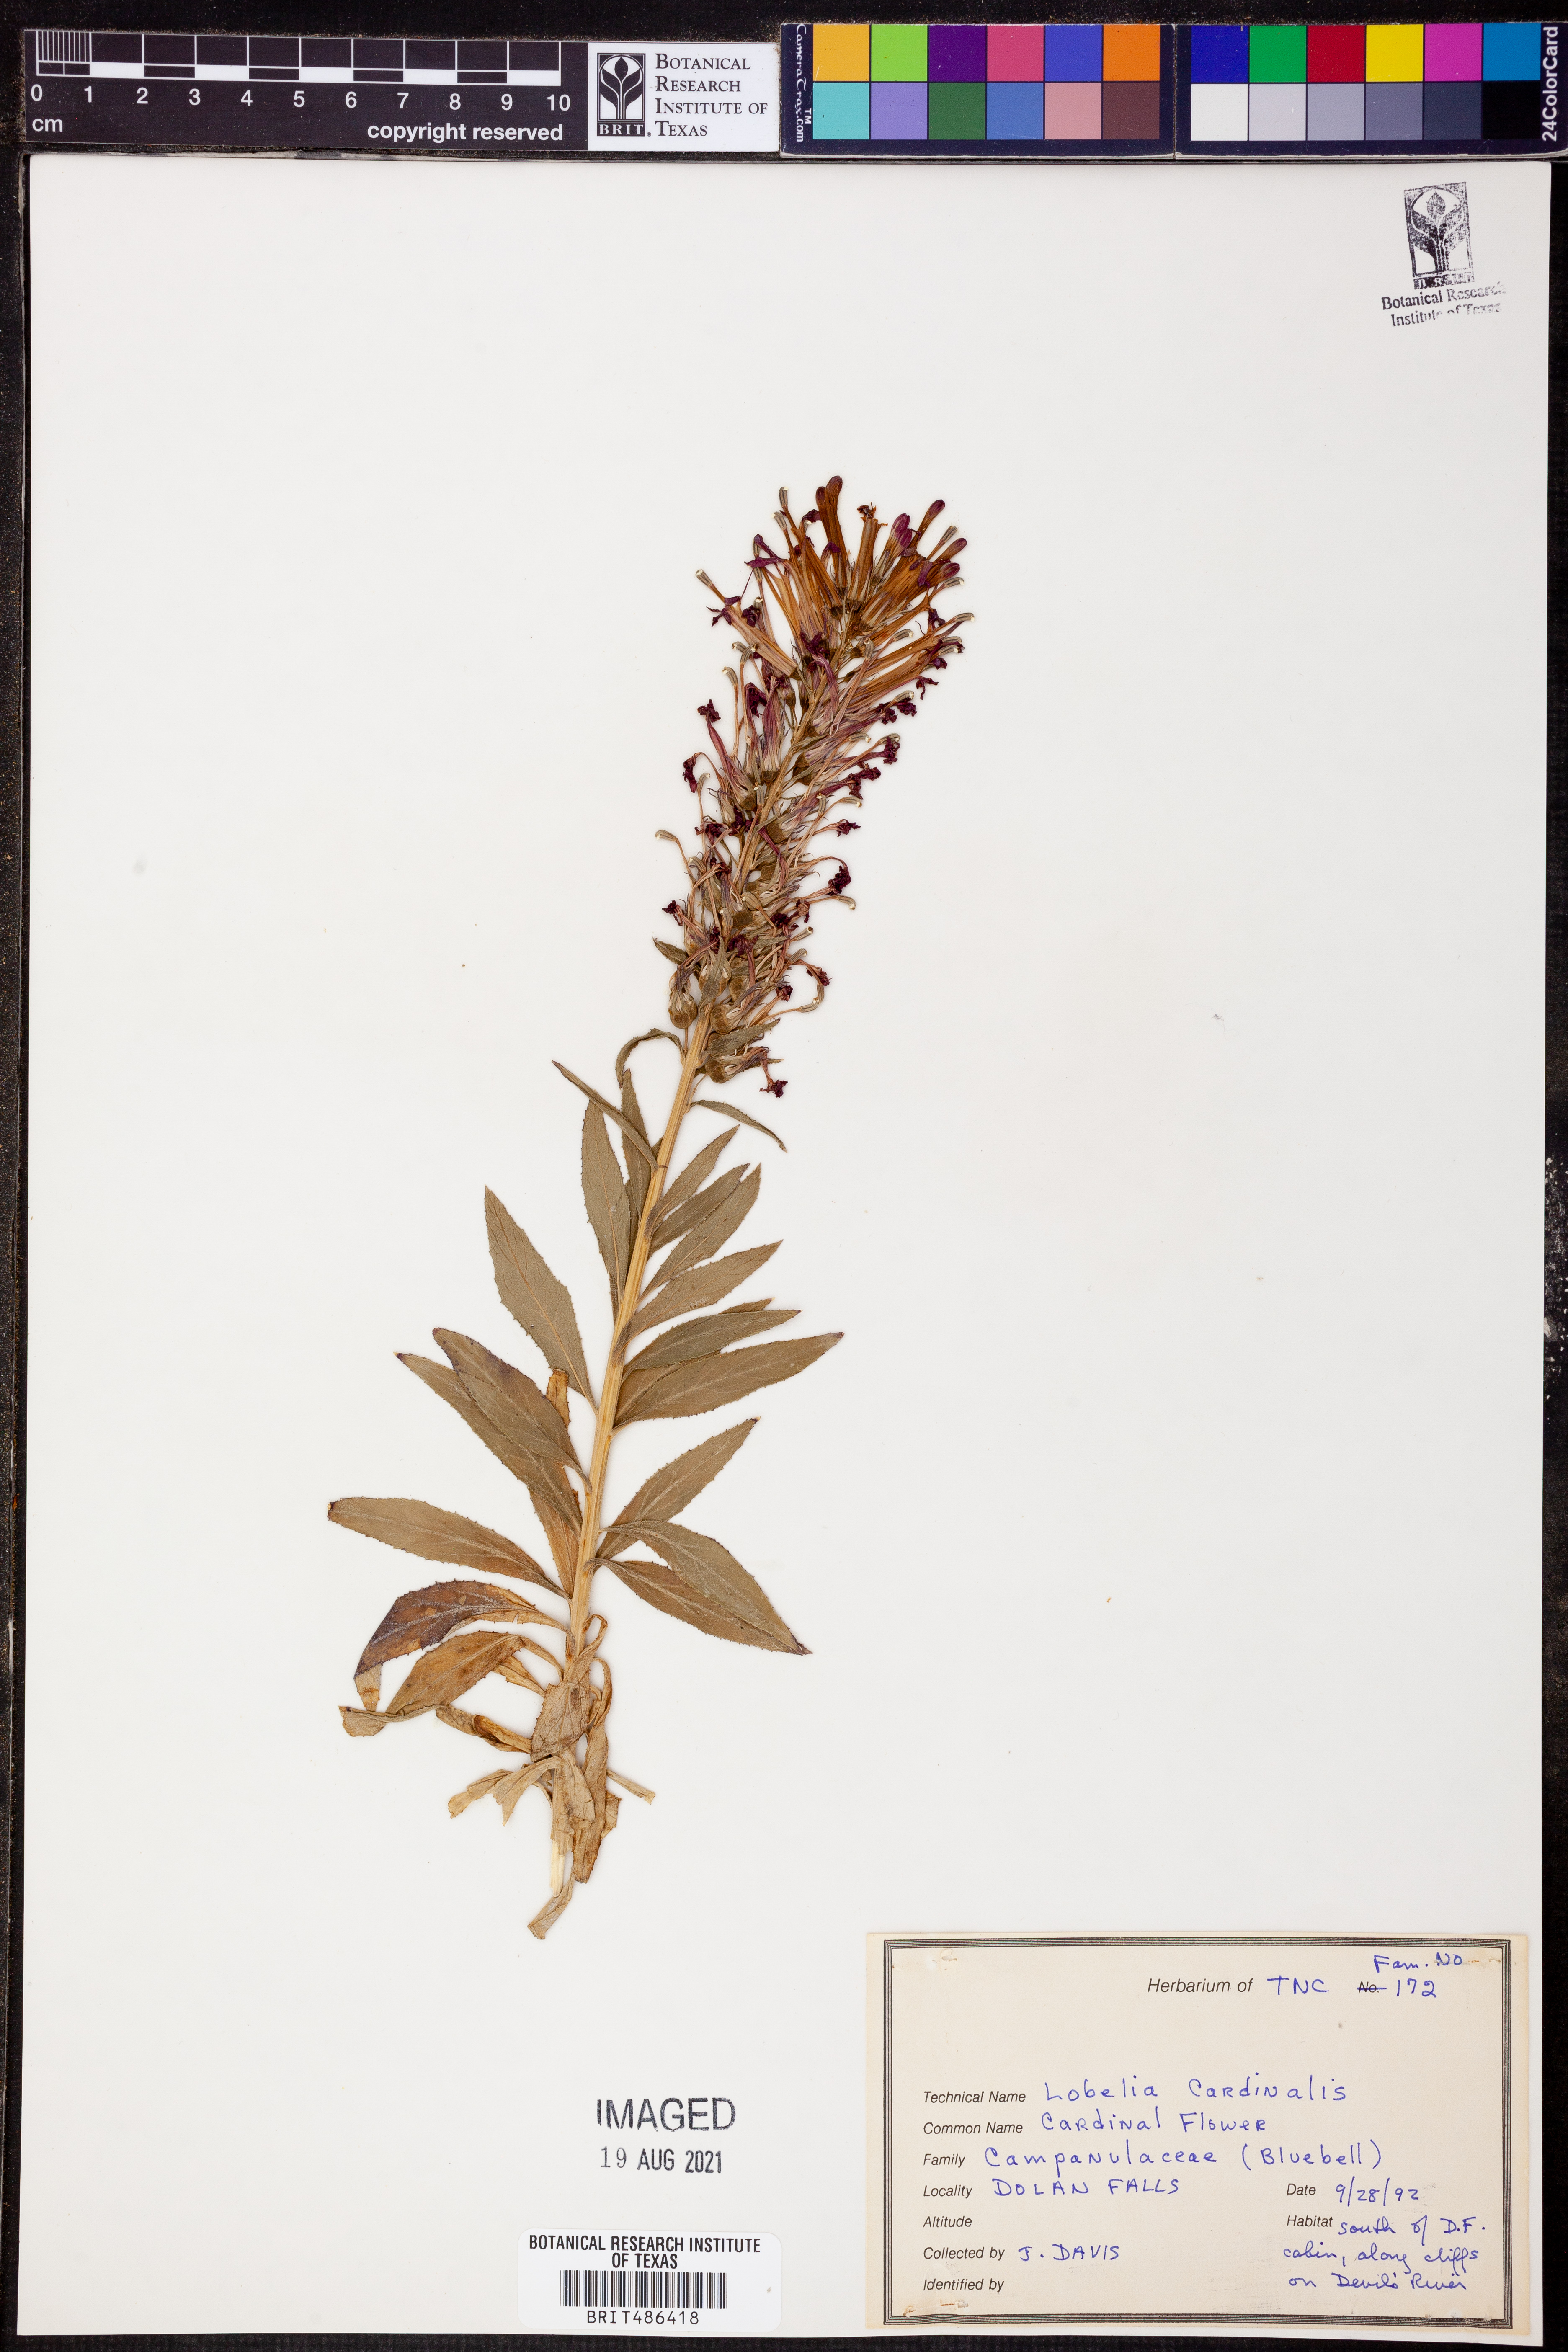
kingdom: Plantae
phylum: Tracheophyta
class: Magnoliopsida
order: Asterales
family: Campanulaceae
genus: Lobelia
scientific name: Lobelia cardinalis
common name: Cardinal flower
